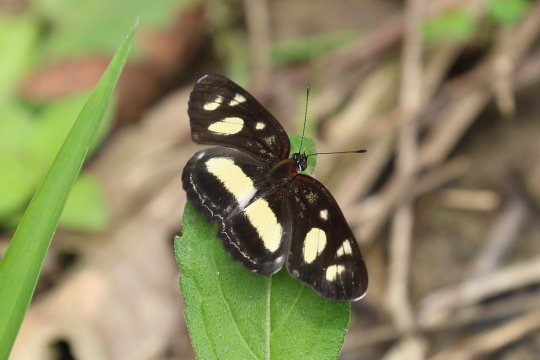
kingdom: Animalia
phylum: Arthropoda
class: Insecta
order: Lepidoptera
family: Nymphalidae
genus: Eresia
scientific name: Eresia clio
